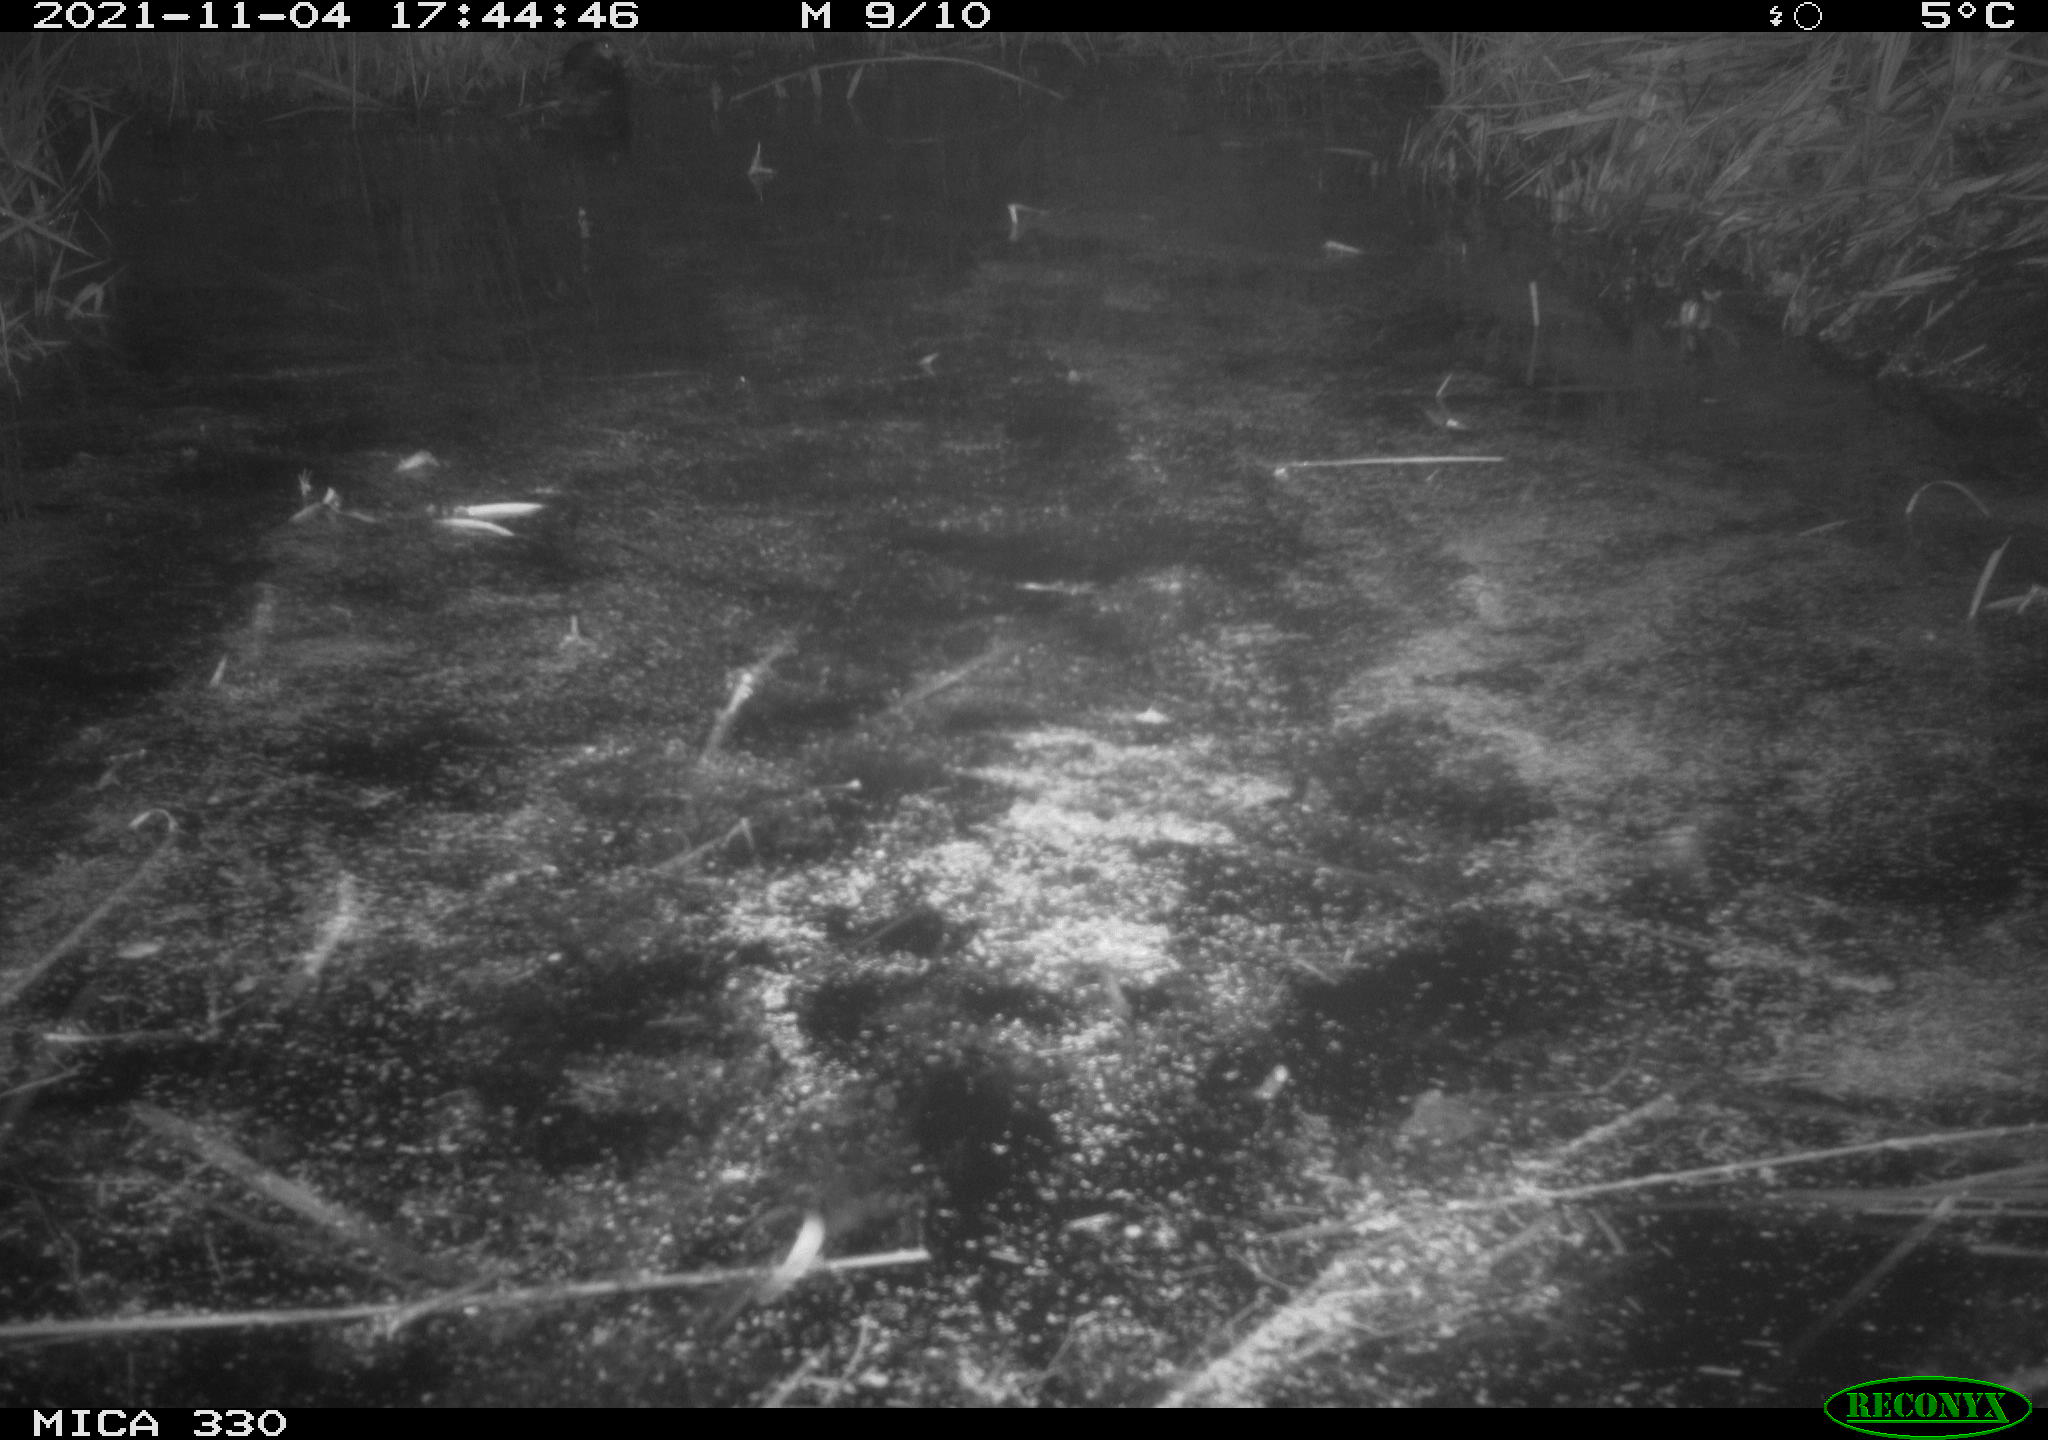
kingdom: Animalia
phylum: Chordata
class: Aves
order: Anseriformes
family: Anatidae
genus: Anas
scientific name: Anas platyrhynchos
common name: Mallard
